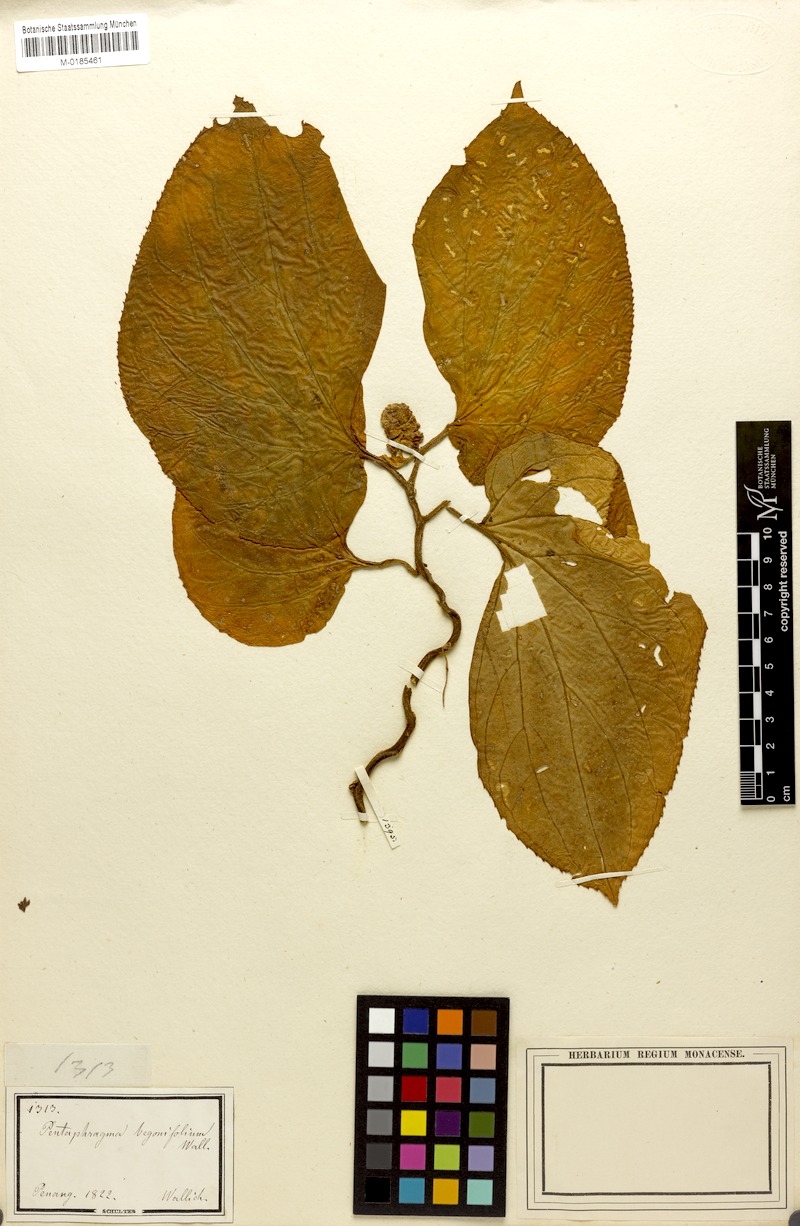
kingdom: Plantae
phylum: Tracheophyta
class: Magnoliopsida
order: Asterales
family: Pentaphragmataceae
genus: Pentaphragma
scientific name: Pentaphragma begoniifolium
